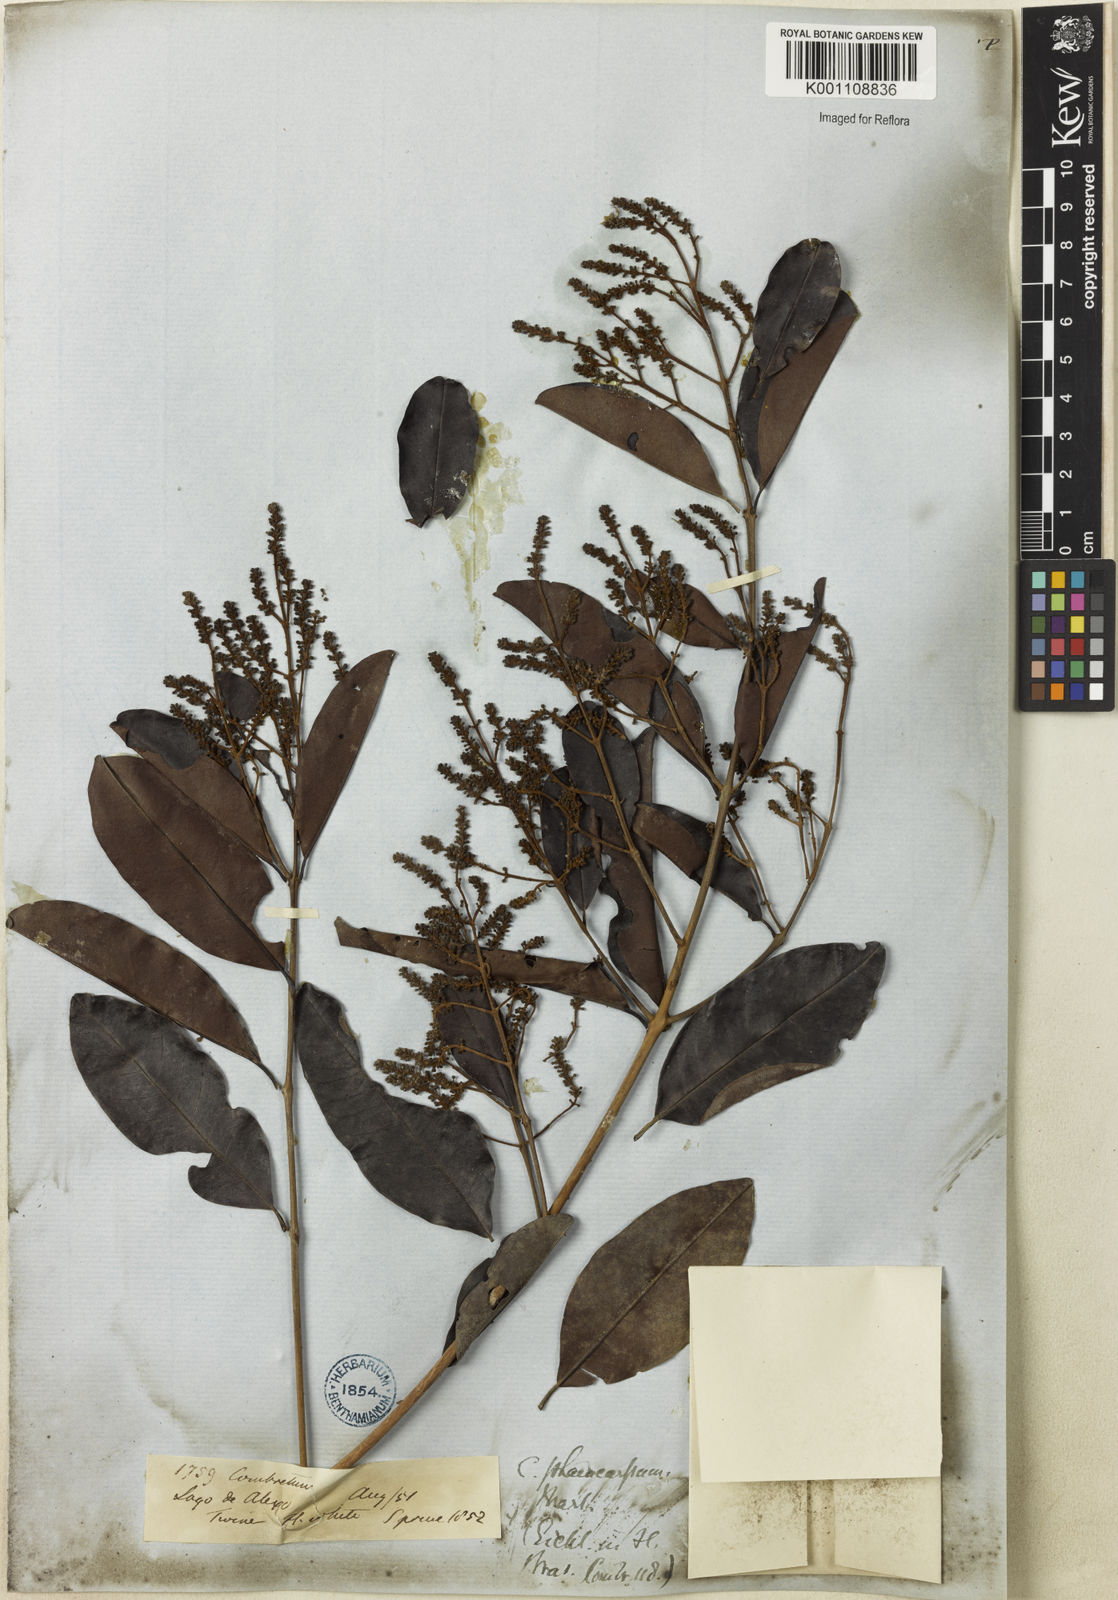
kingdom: Plantae
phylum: Tracheophyta
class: Magnoliopsida
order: Myrtales
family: Combretaceae
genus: Combretum
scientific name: Combretum pyramidatum
